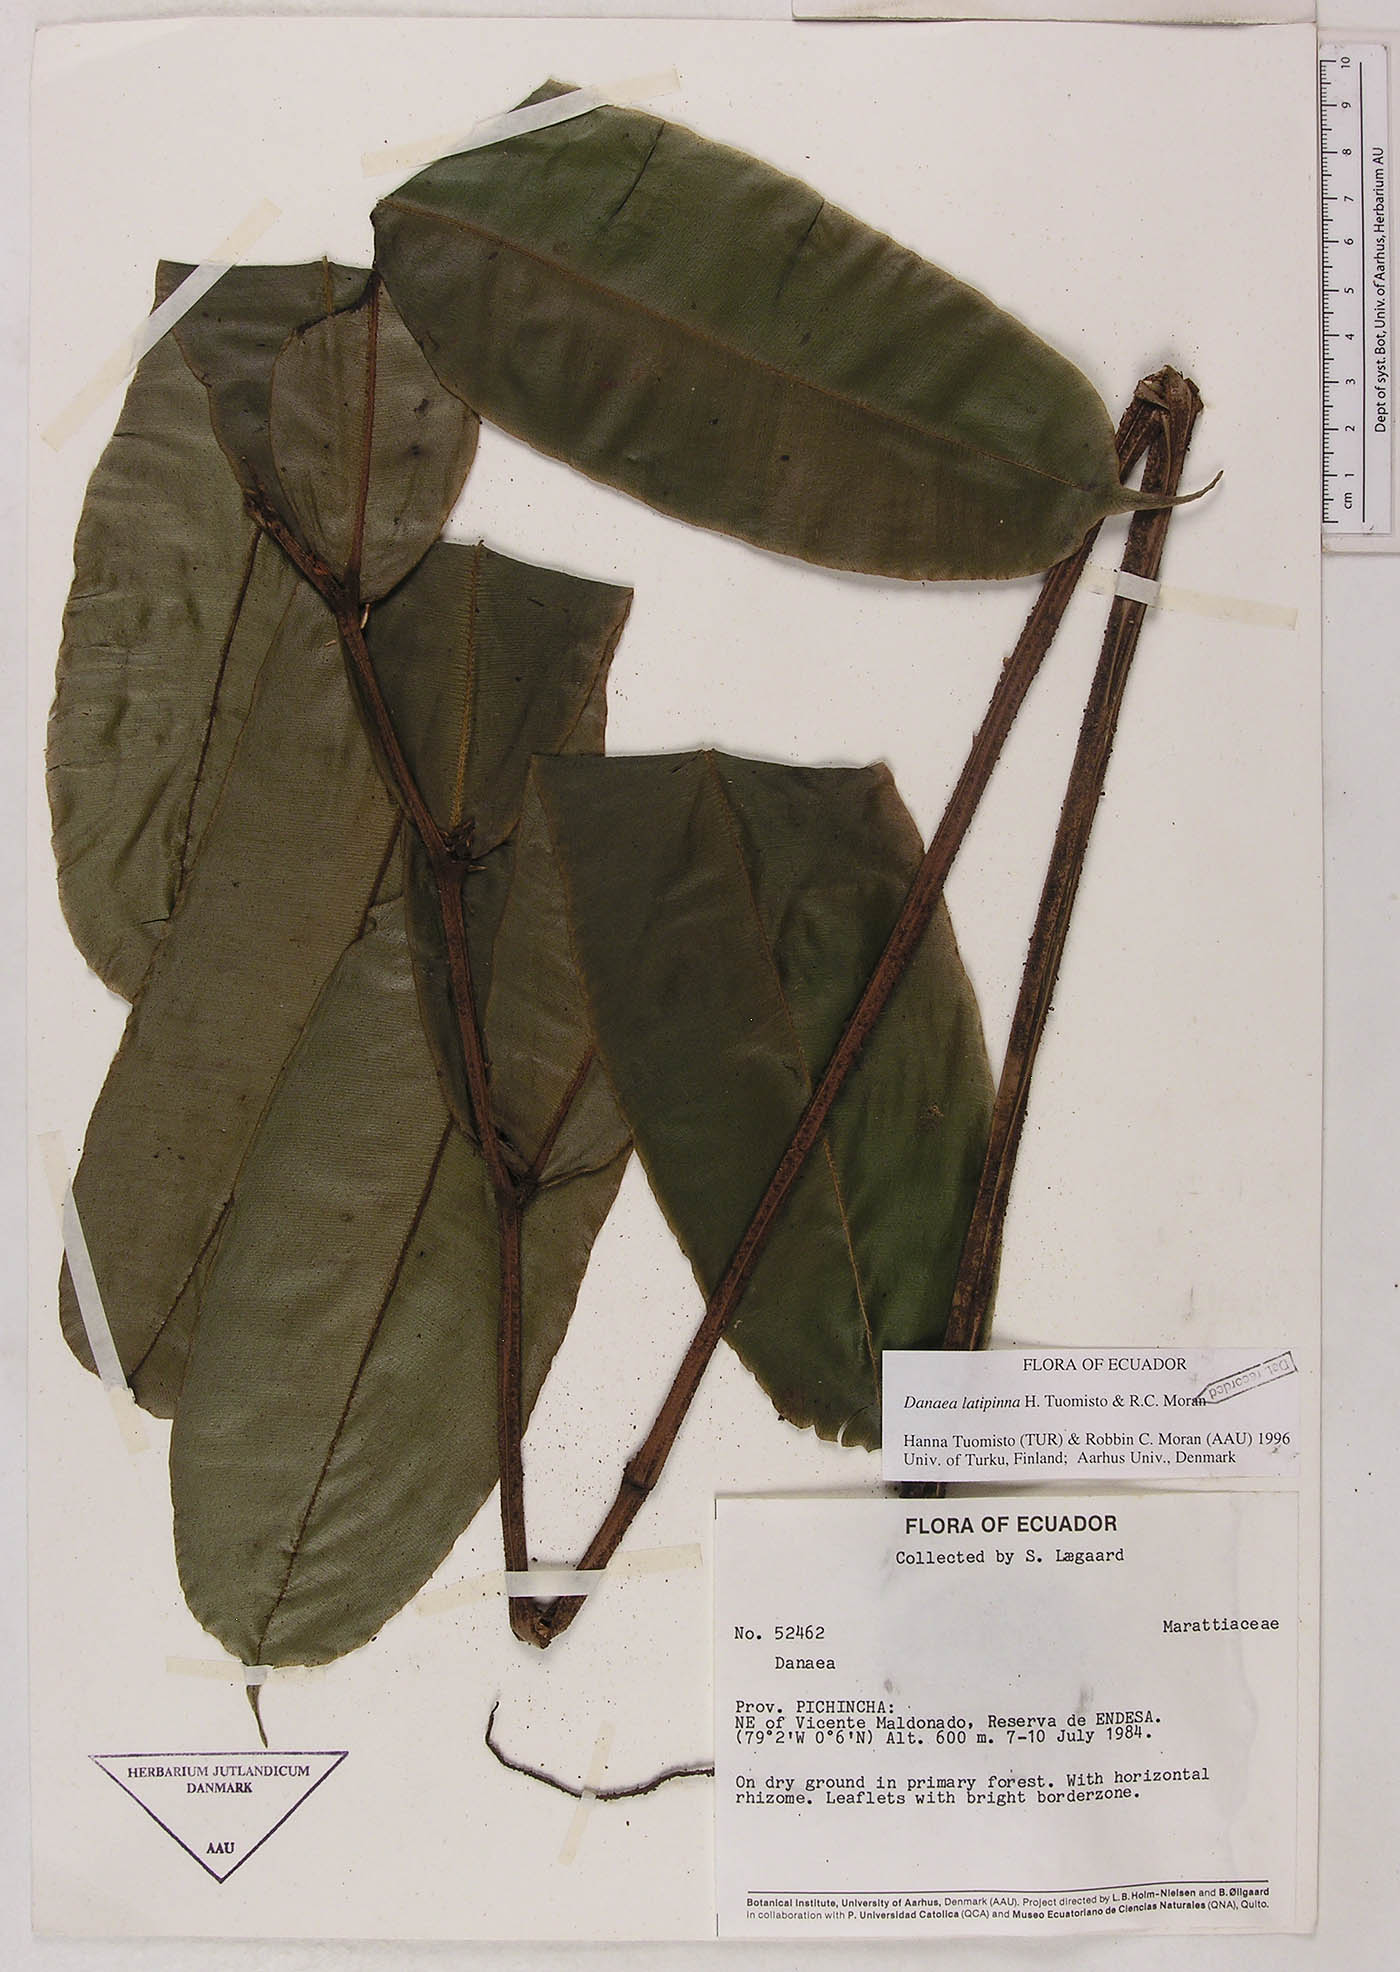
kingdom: Plantae
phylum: Tracheophyta
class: Polypodiopsida
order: Marattiales
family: Marattiaceae
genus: Danaea
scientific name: Danaea
